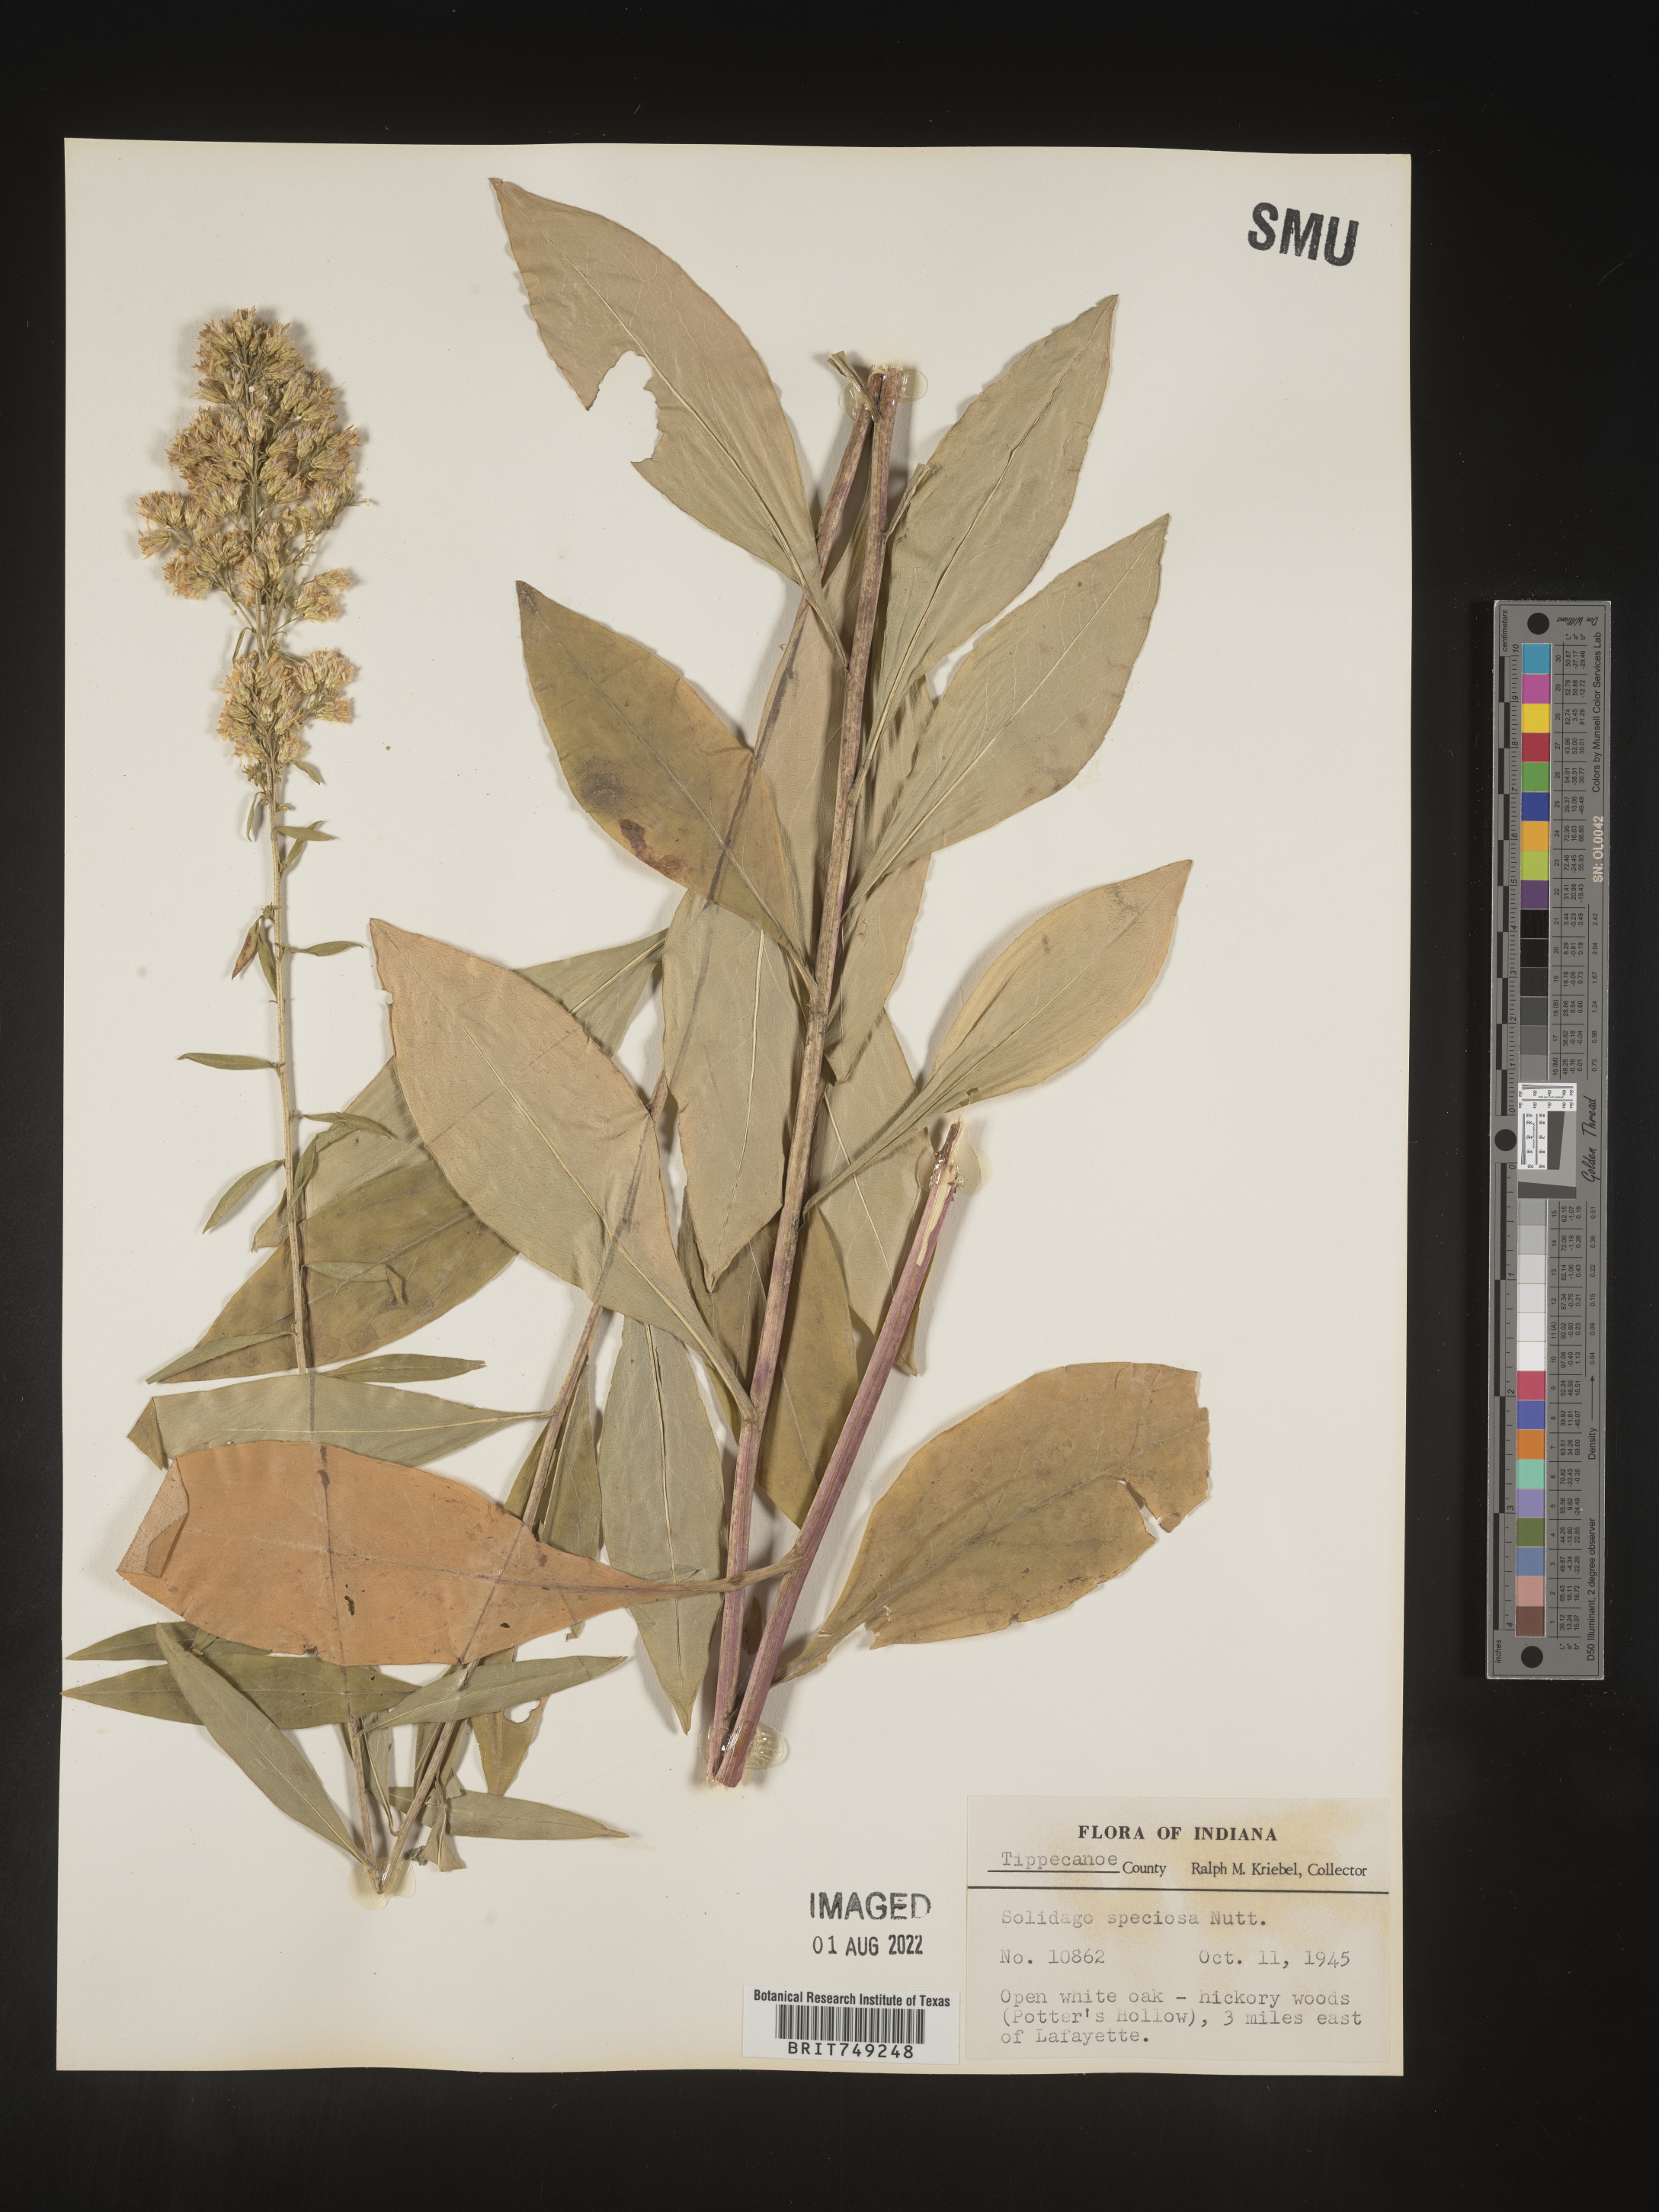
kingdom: Plantae
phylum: Tracheophyta
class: Magnoliopsida
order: Asterales
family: Asteraceae
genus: Solidago
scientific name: Solidago speciosa
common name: Showy goldenrod
